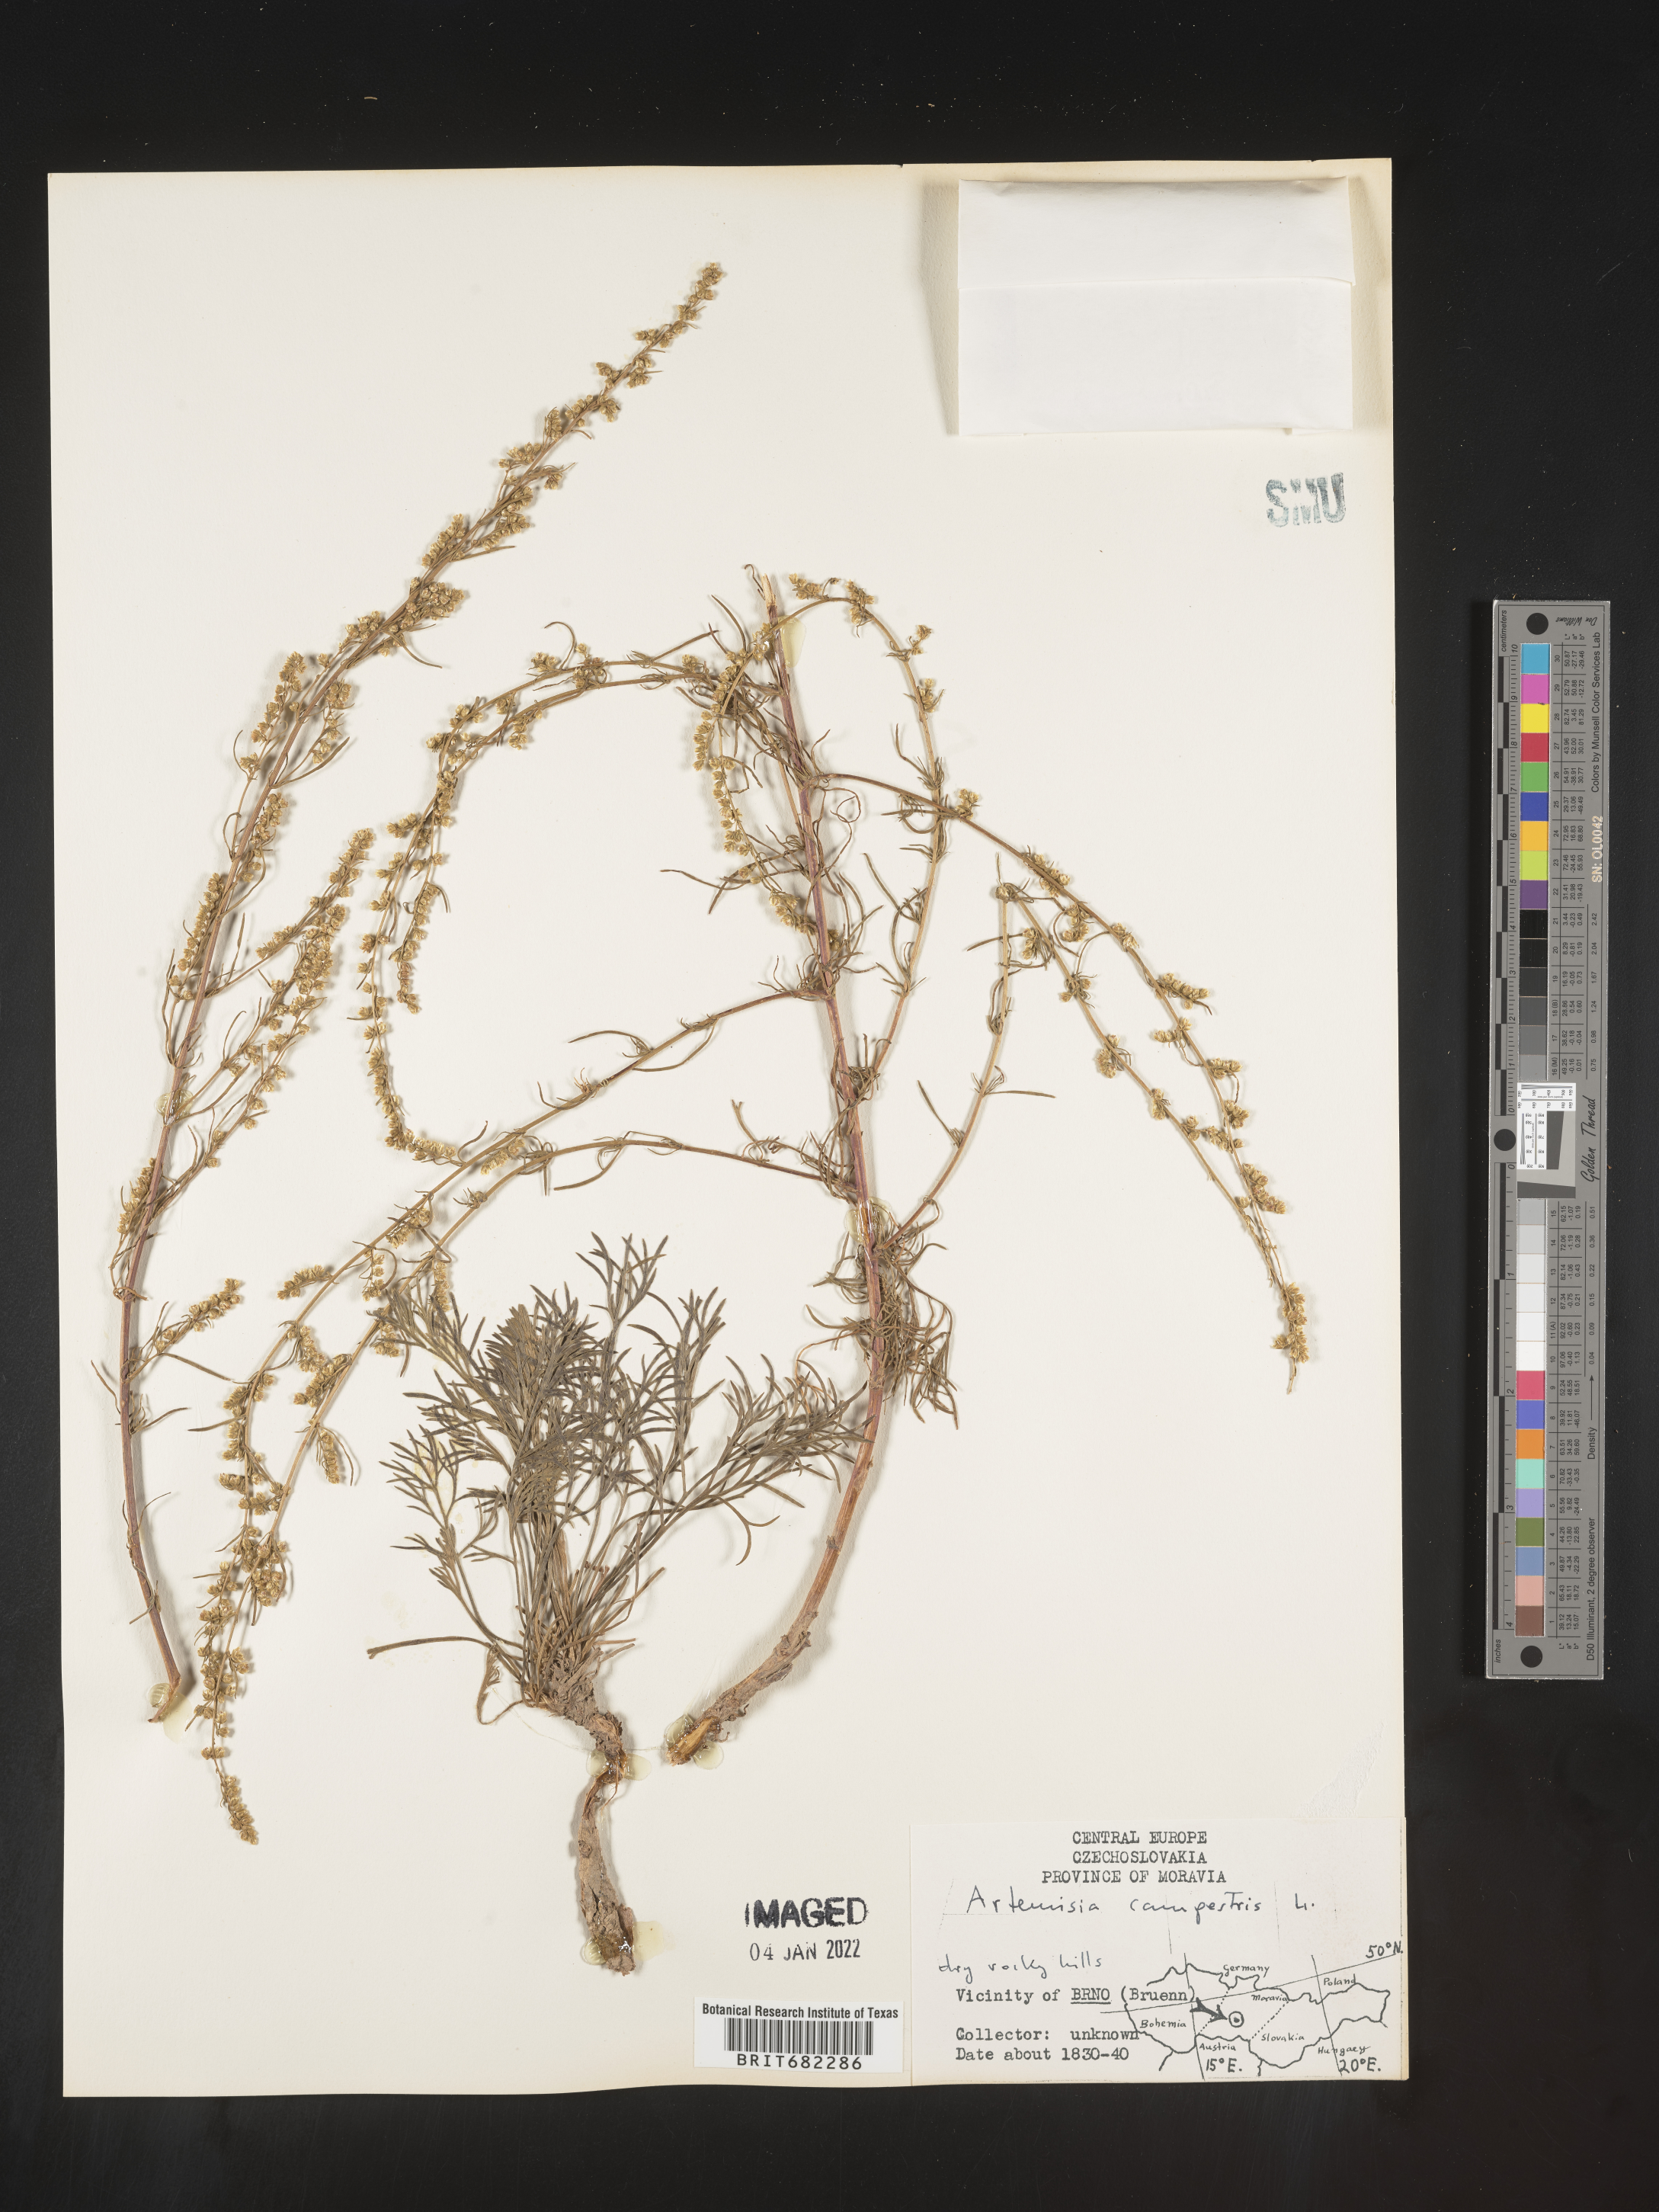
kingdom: Plantae
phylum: Tracheophyta
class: Magnoliopsida
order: Asterales
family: Asteraceae
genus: Artemisia
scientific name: Artemisia campestris
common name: Field wormwood
